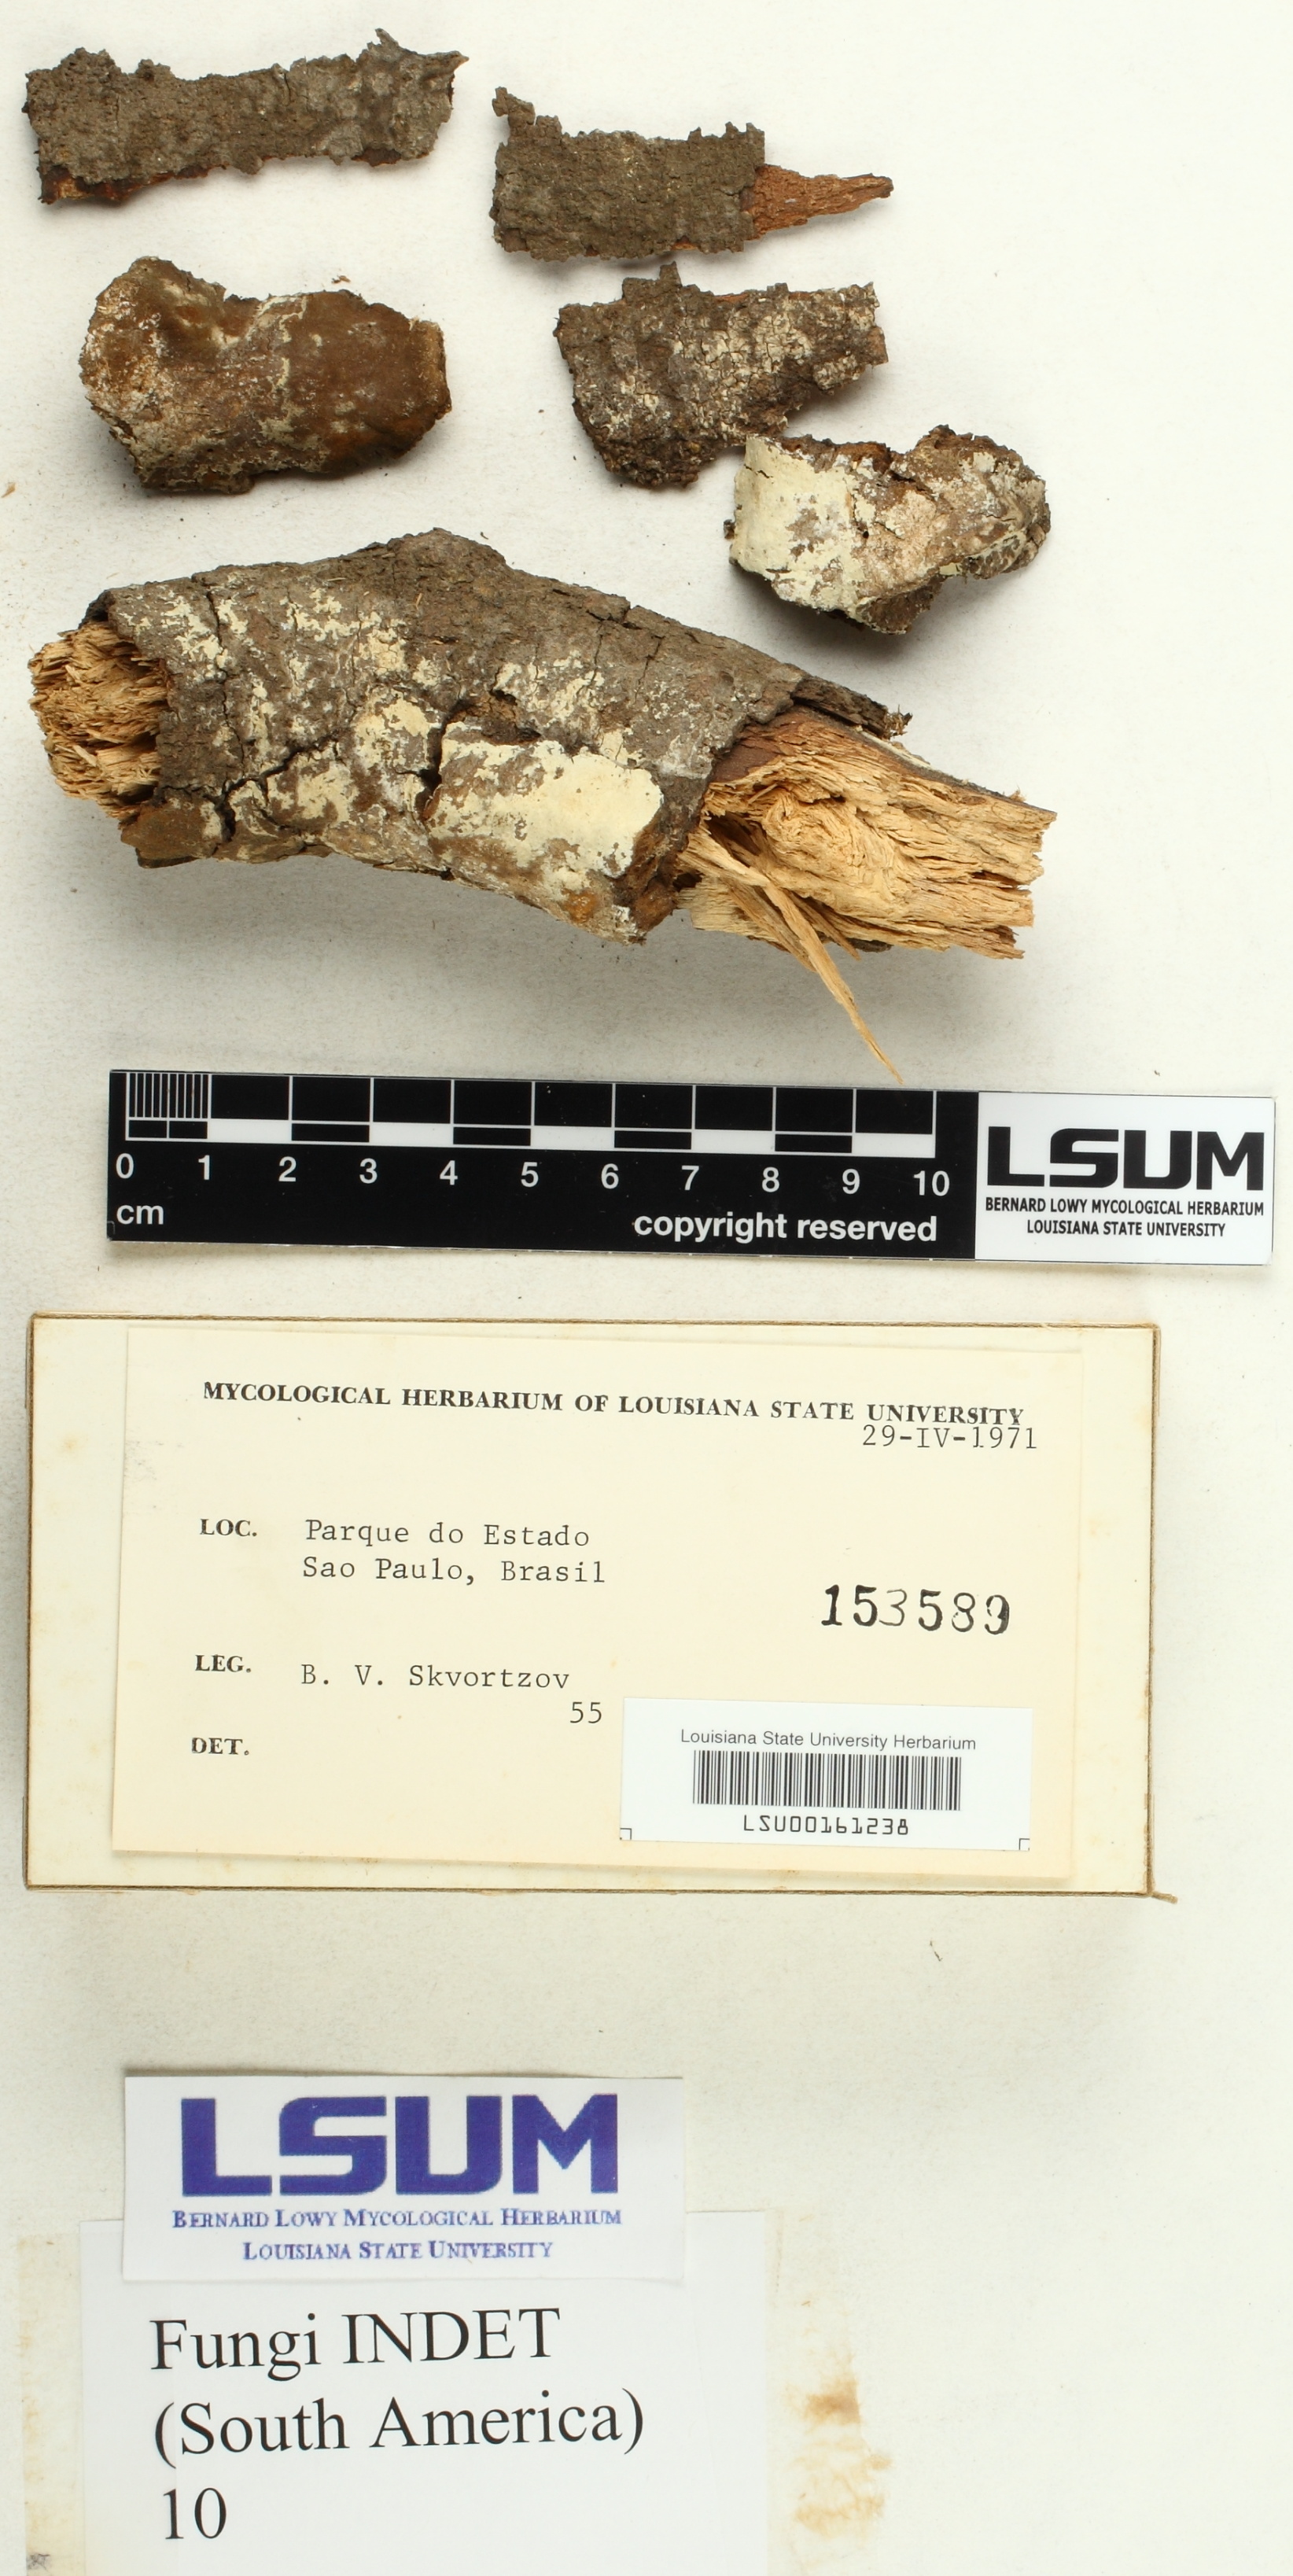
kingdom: Fungi
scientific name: Fungi
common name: Fungi
